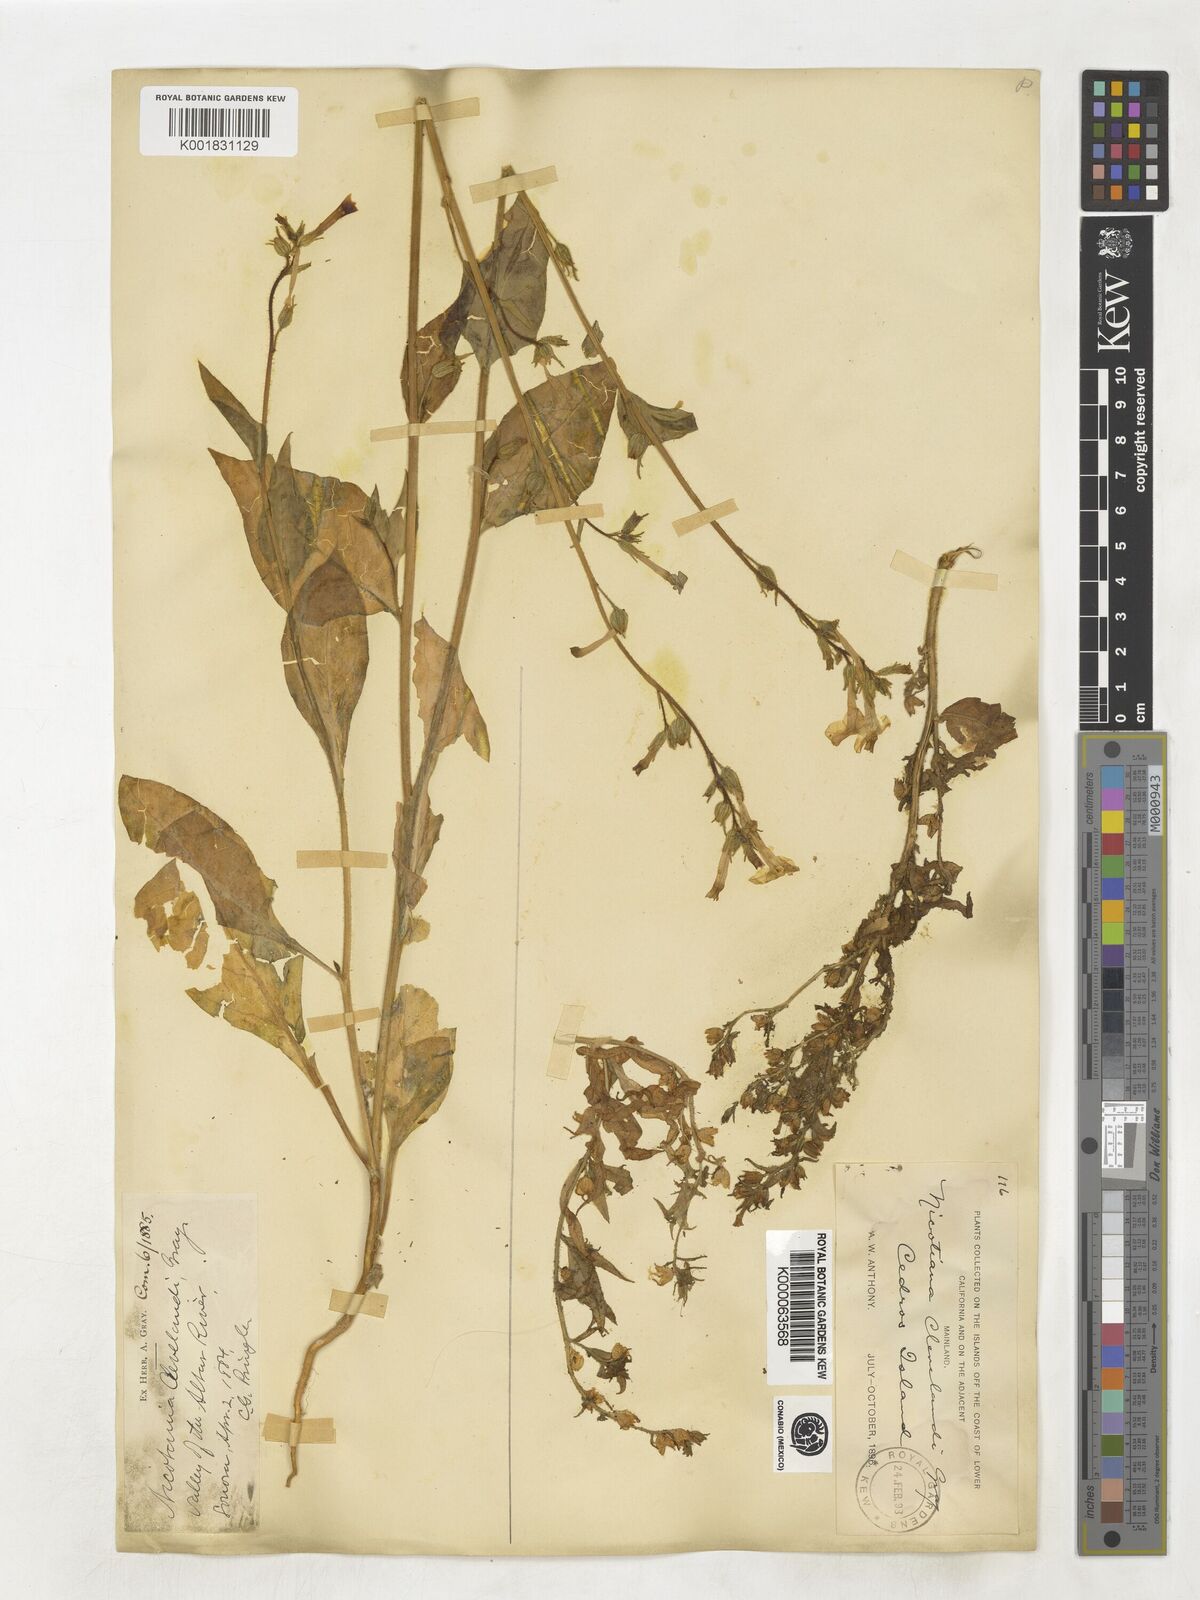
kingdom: Plantae
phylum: Tracheophyta
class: Magnoliopsida
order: Solanales
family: Solanaceae
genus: Nicotiana
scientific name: Nicotiana clevelandii
